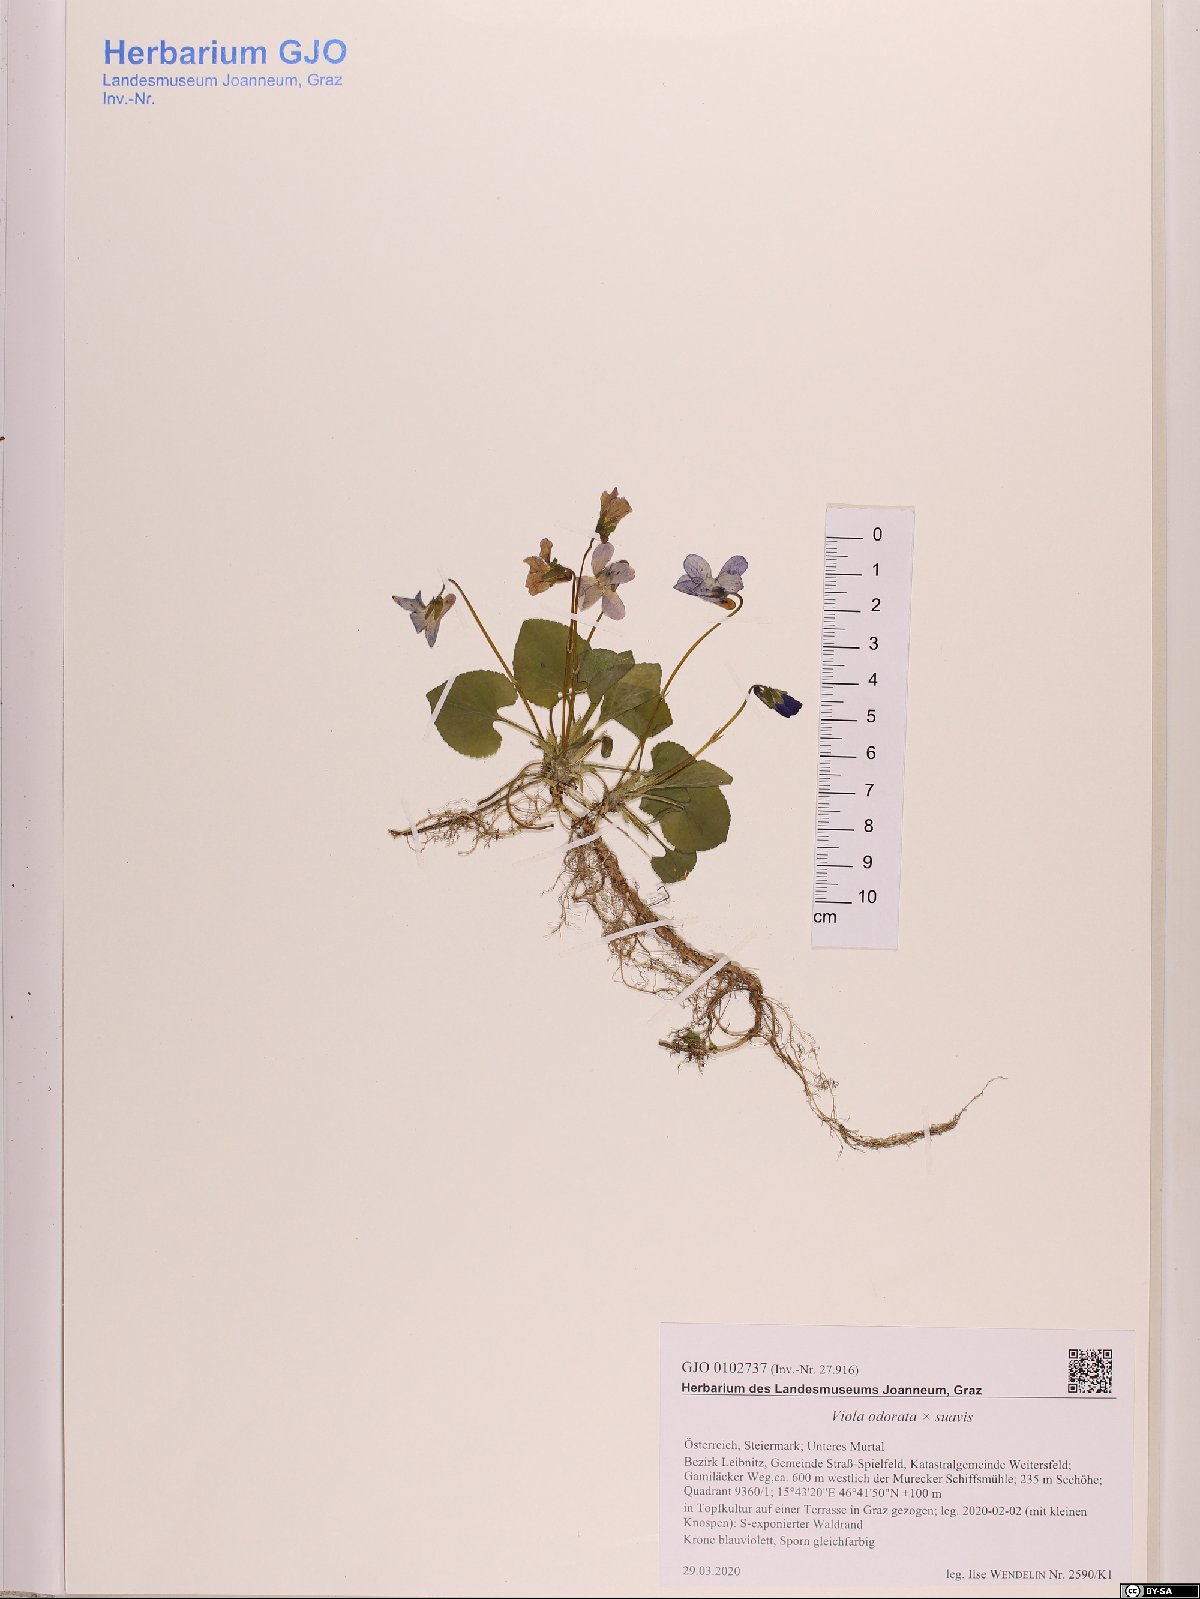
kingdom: Plantae
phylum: Tracheophyta
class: Magnoliopsida
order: Malpighiales
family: Violaceae
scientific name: Violaceae
